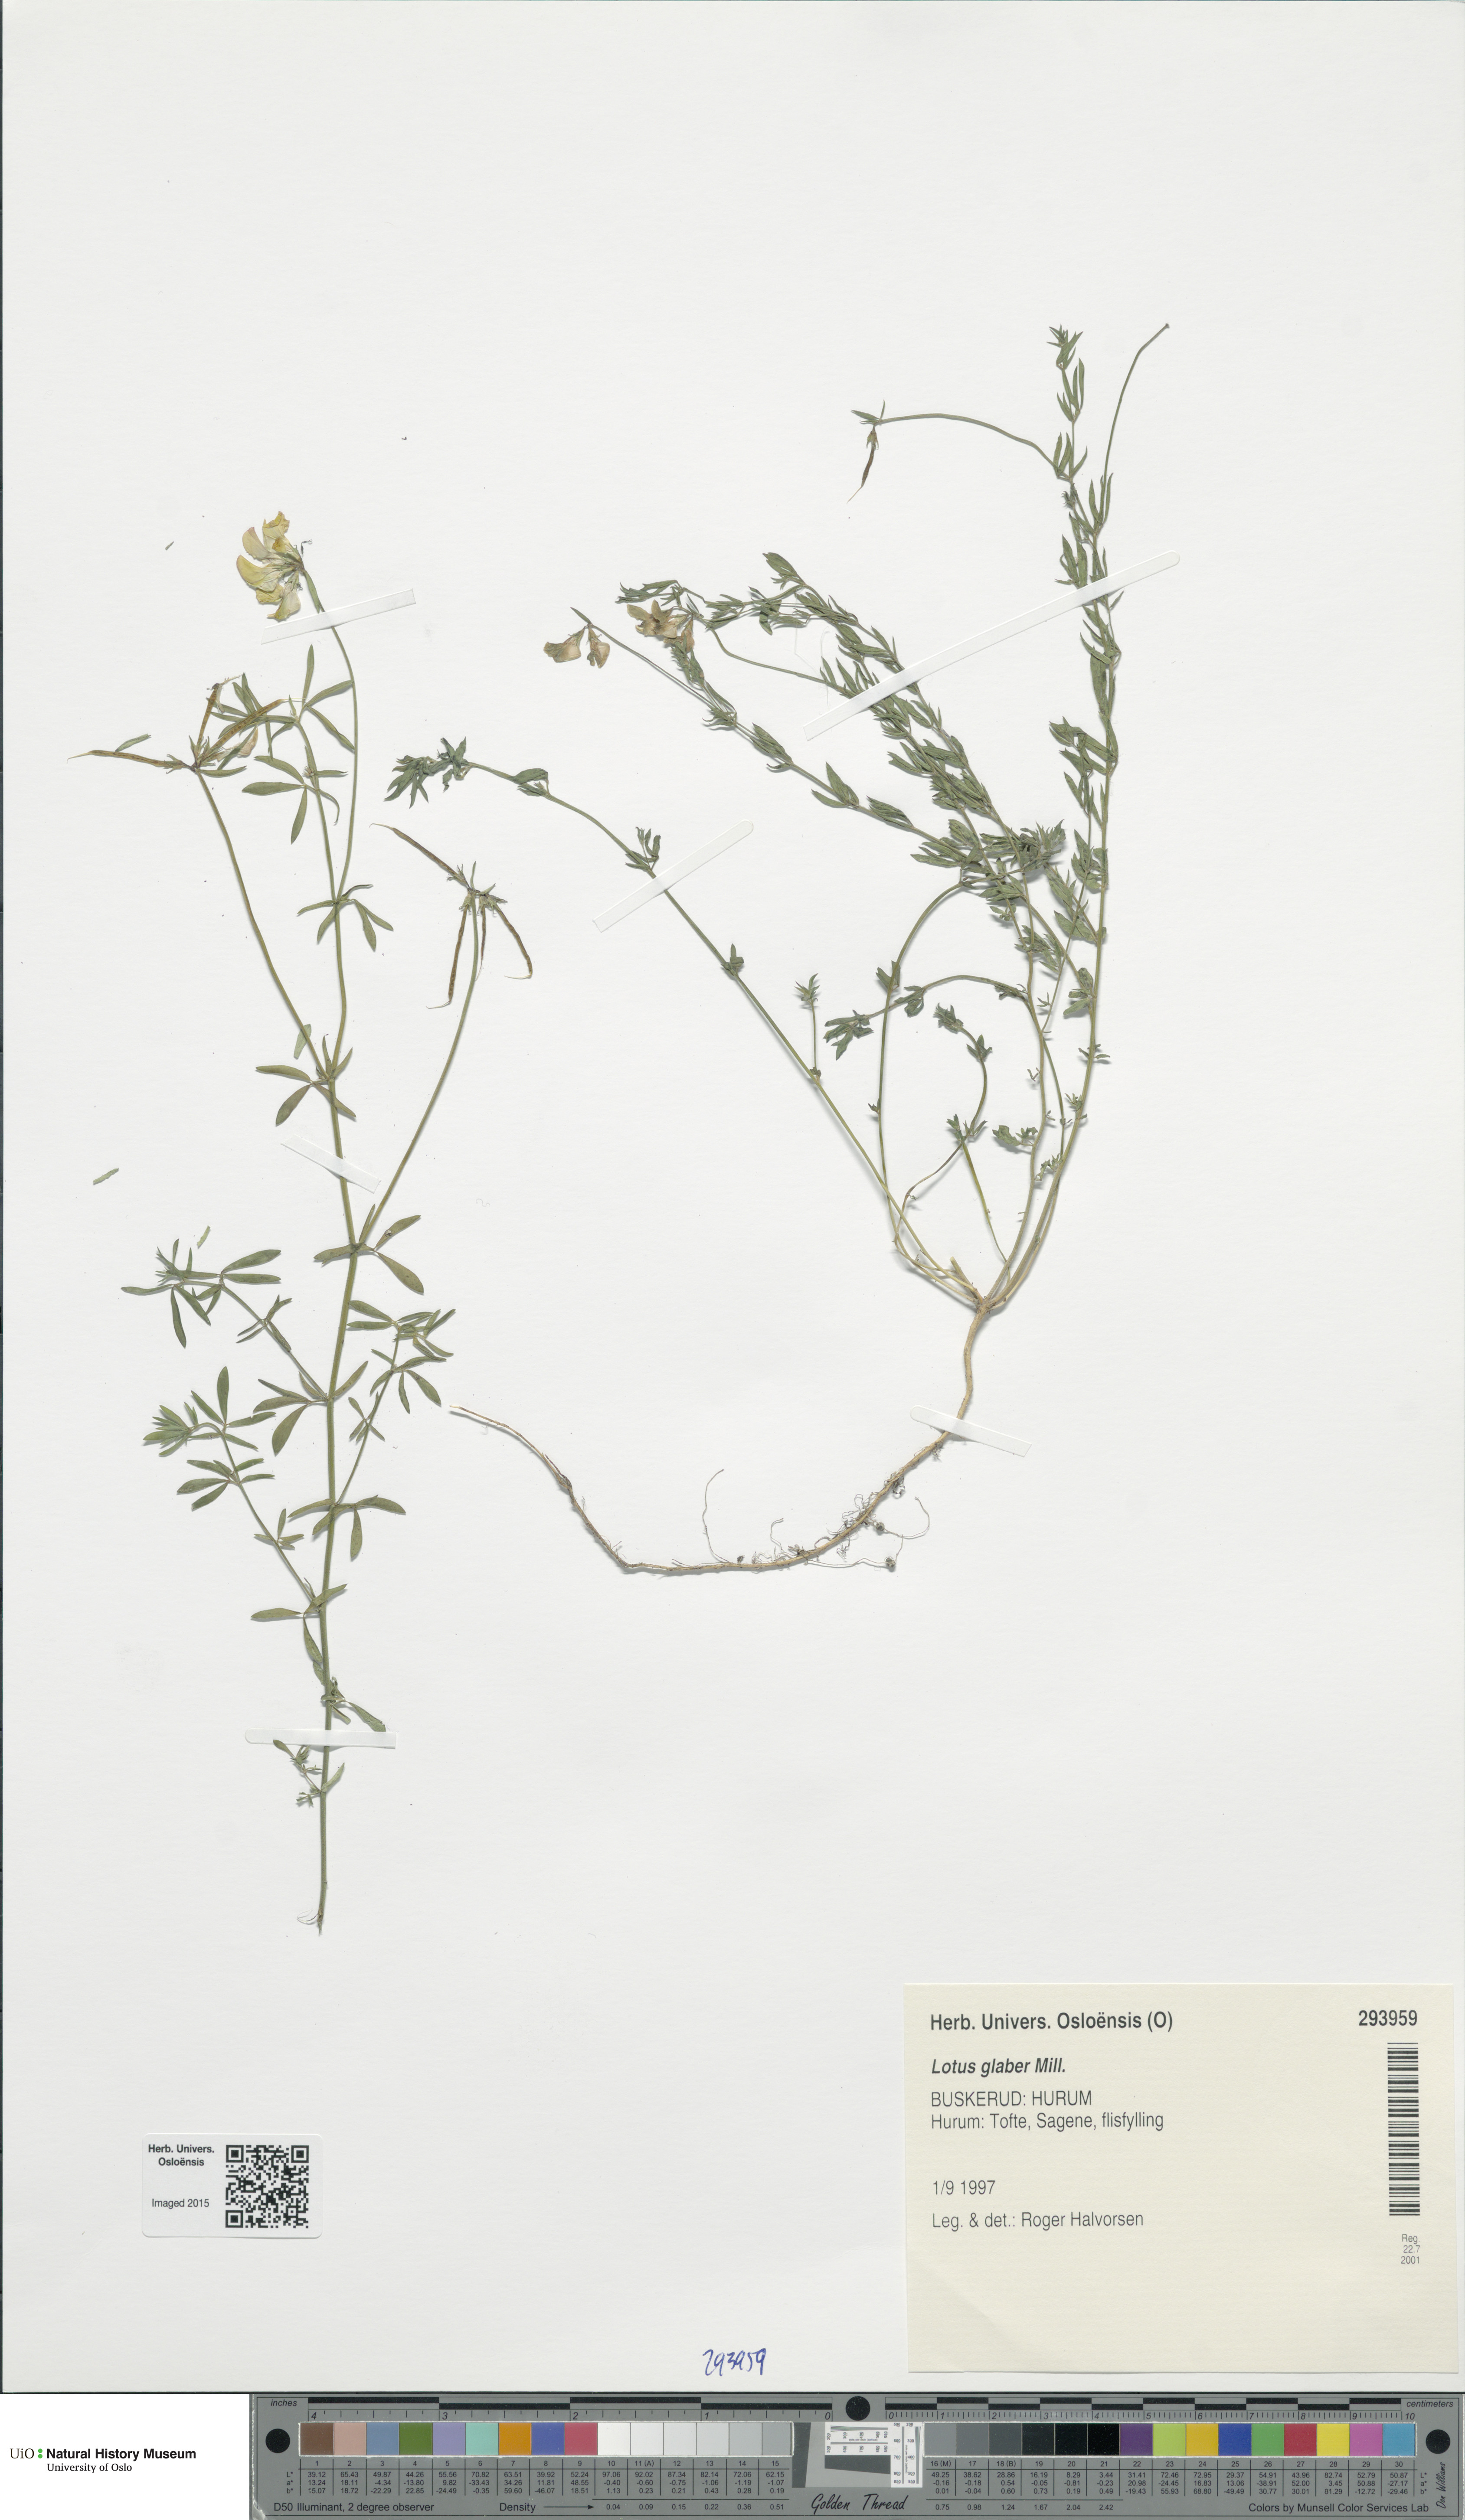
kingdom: Plantae
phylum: Tracheophyta
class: Magnoliopsida
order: Fabales
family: Fabaceae
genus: Lotus
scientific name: Lotus tenuis
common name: Narrow-leaved bird's-foot-trefoil
